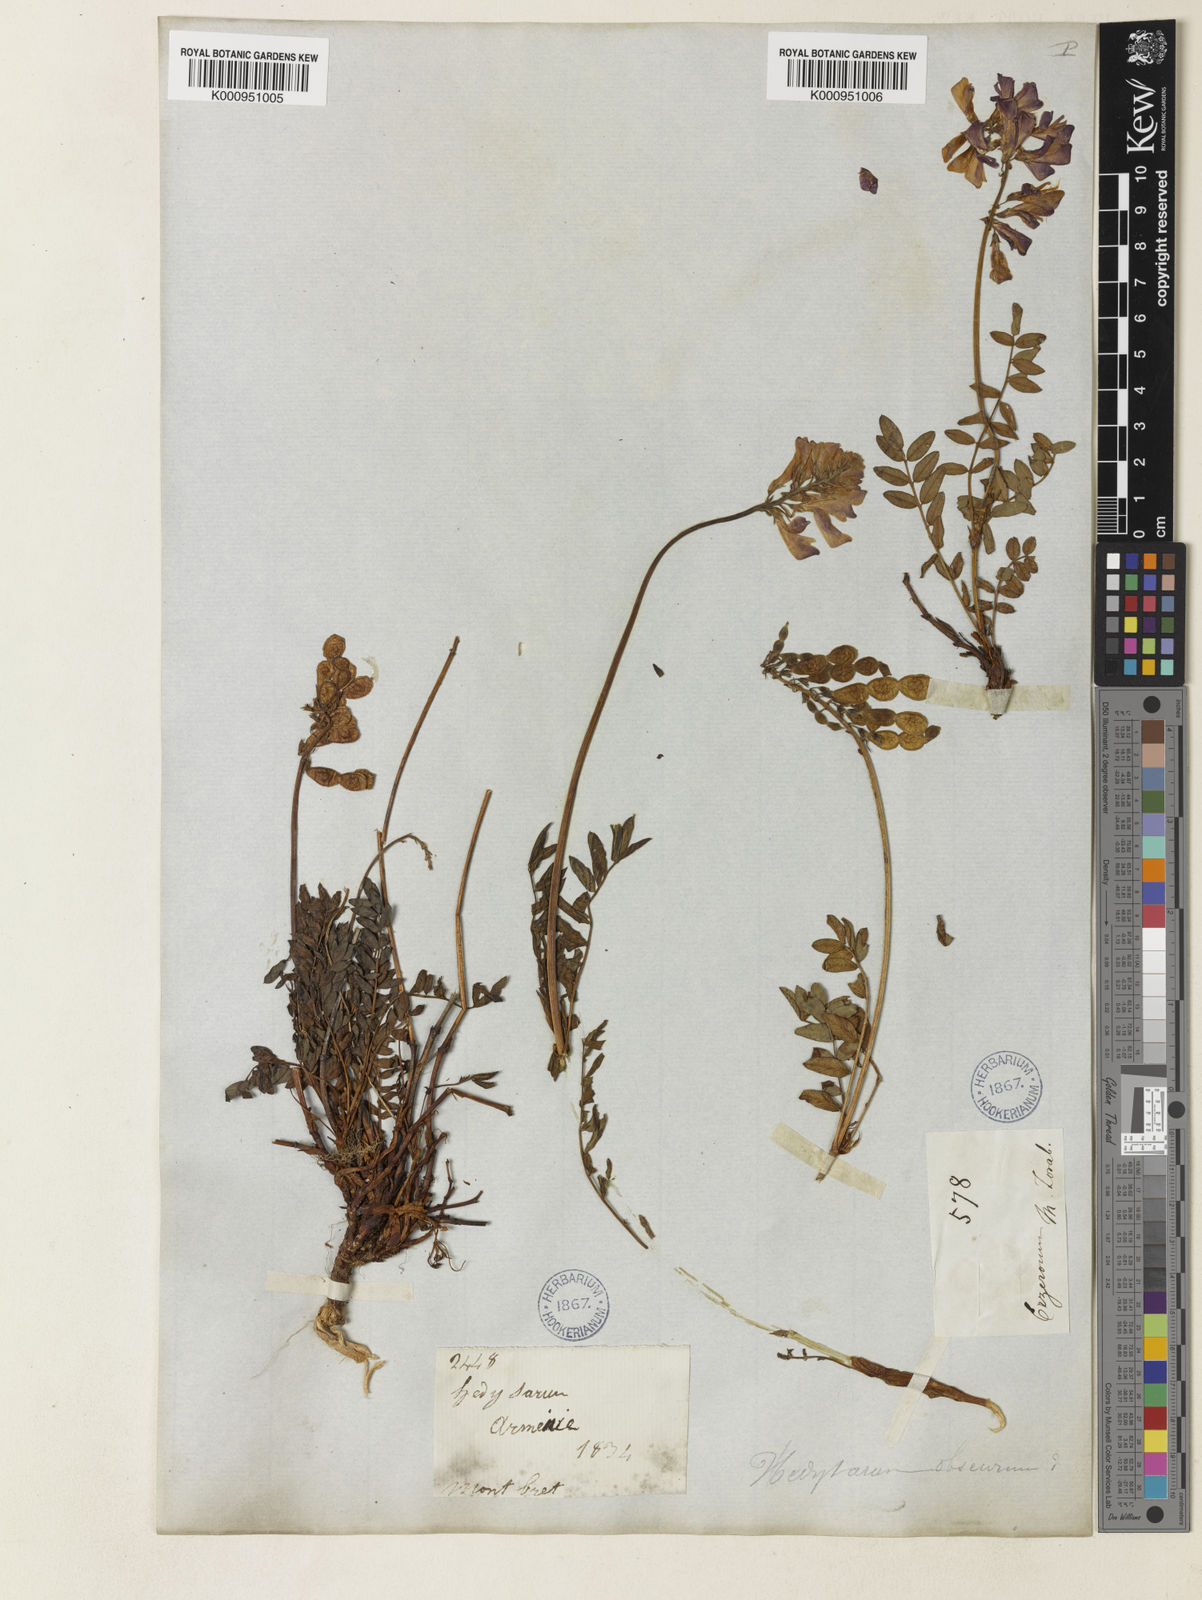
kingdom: Plantae
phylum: Tracheophyta
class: Magnoliopsida
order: Fabales
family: Fabaceae
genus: Onobrychis
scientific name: Onobrychis humilis
